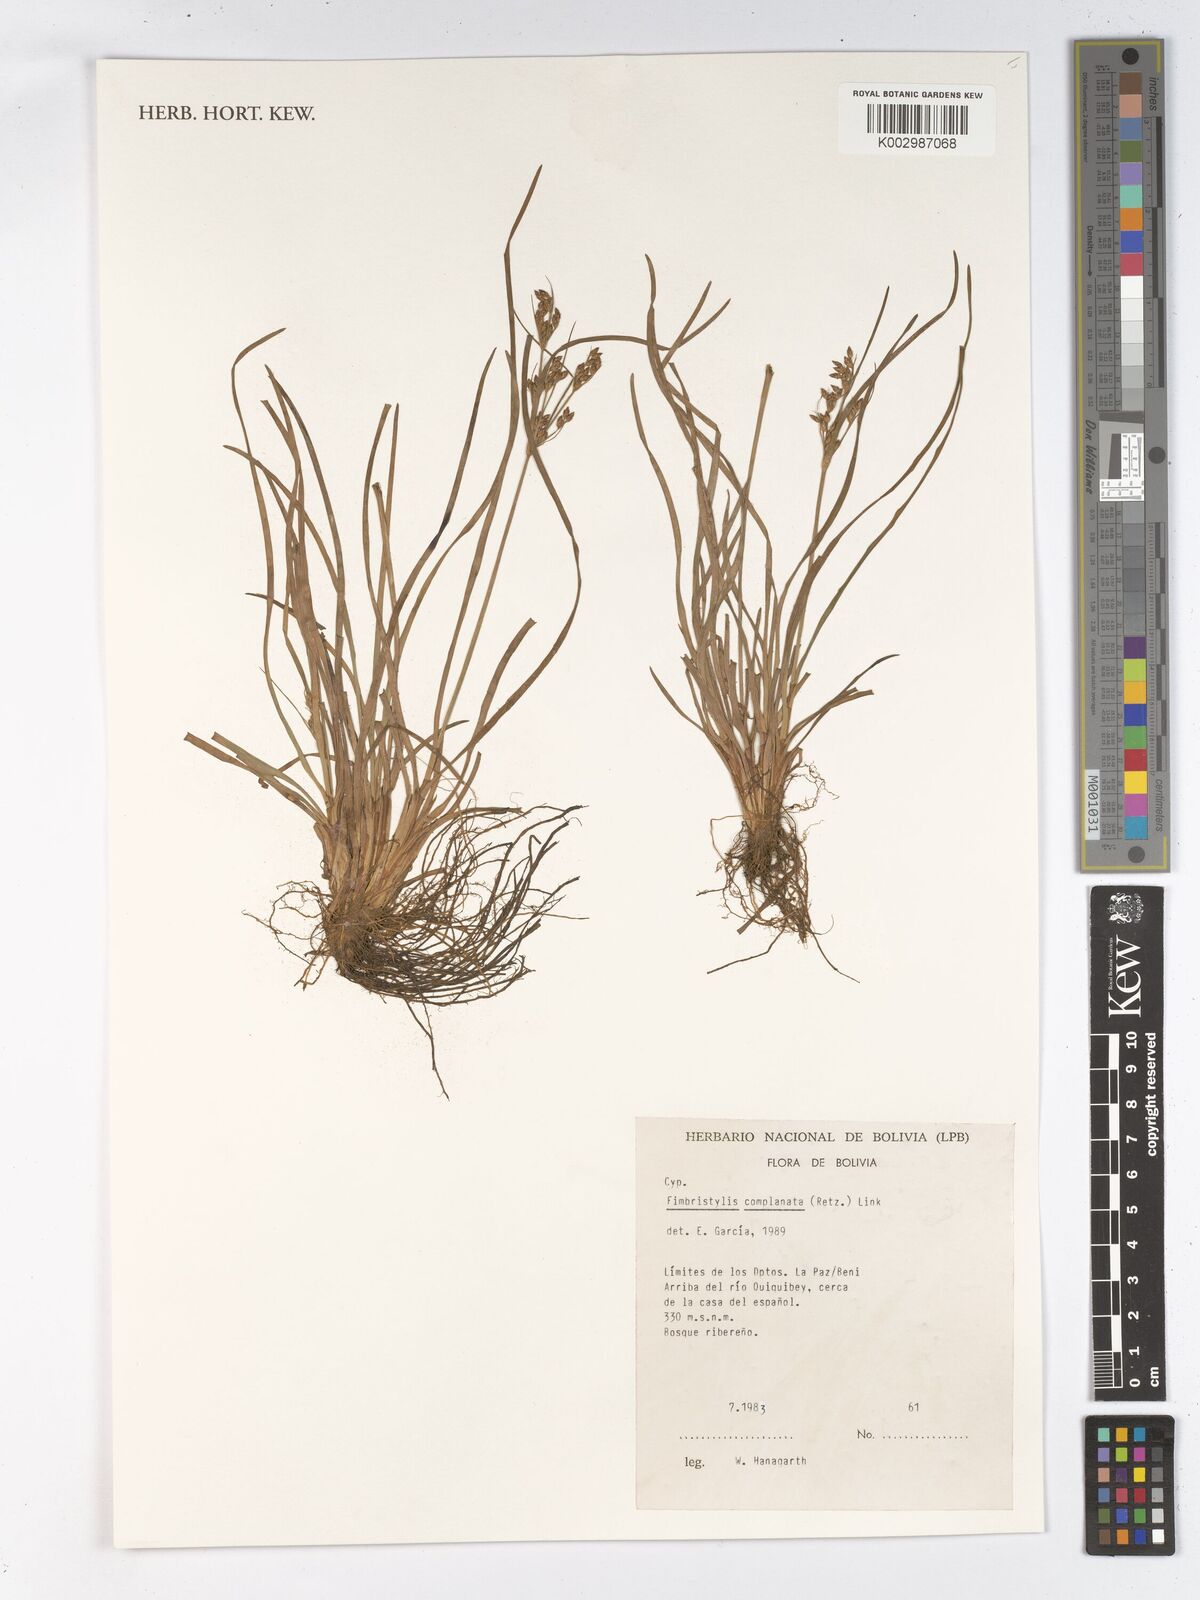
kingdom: Plantae
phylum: Tracheophyta
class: Liliopsida
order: Poales
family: Cyperaceae
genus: Fimbristylis
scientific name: Fimbristylis complanata
